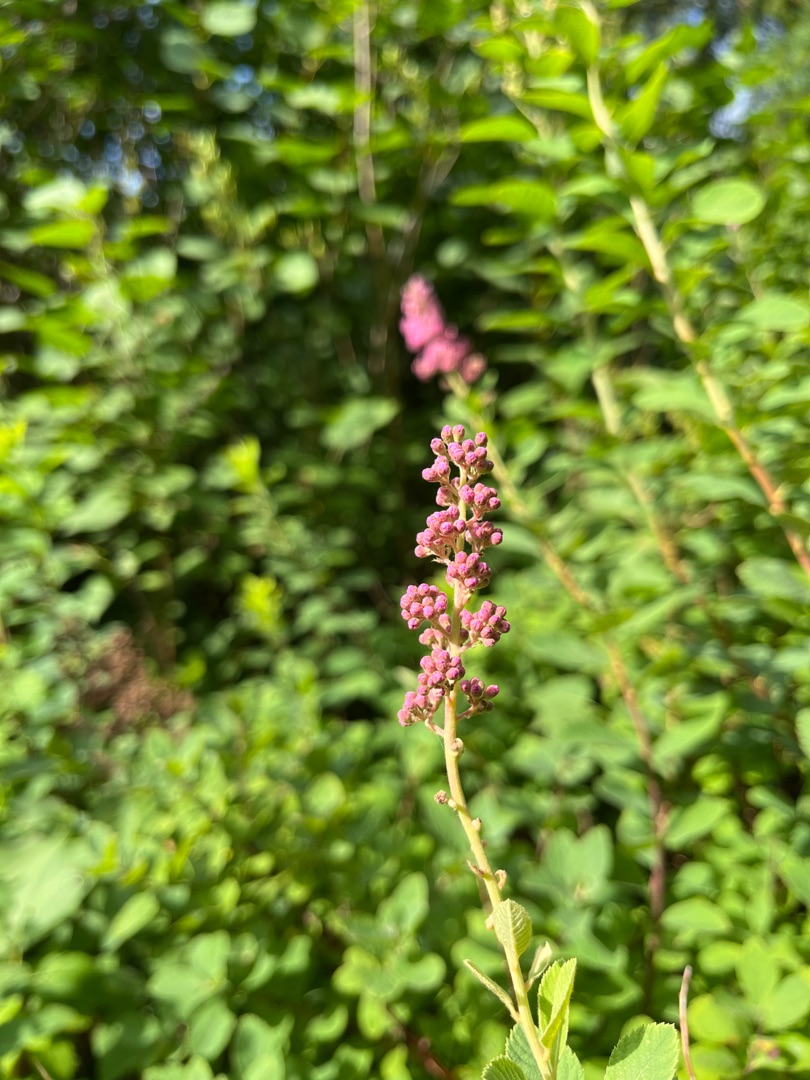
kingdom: Plantae
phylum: Tracheophyta
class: Magnoliopsida
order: Rosales
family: Rosaceae
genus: Spiraea
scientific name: Spiraea
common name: Spiræaslægten
